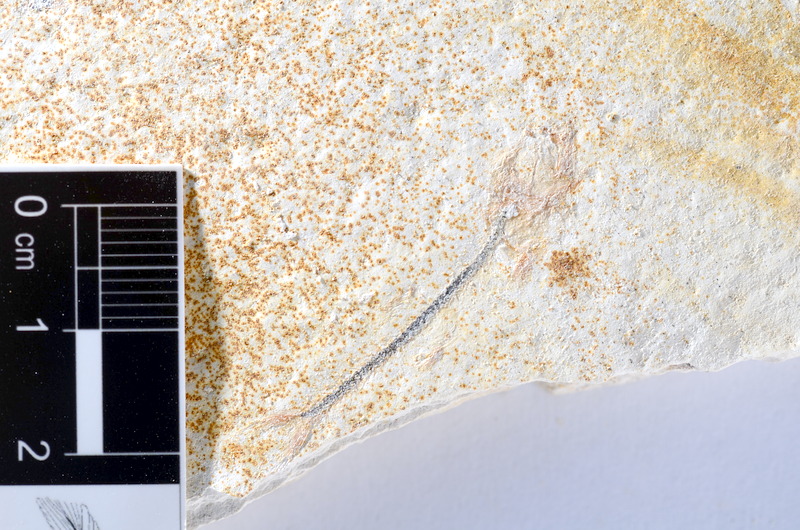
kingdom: Animalia
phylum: Chordata
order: Salmoniformes
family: Orthogonikleithridae
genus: Orthogonikleithrus
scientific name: Orthogonikleithrus hoelli
